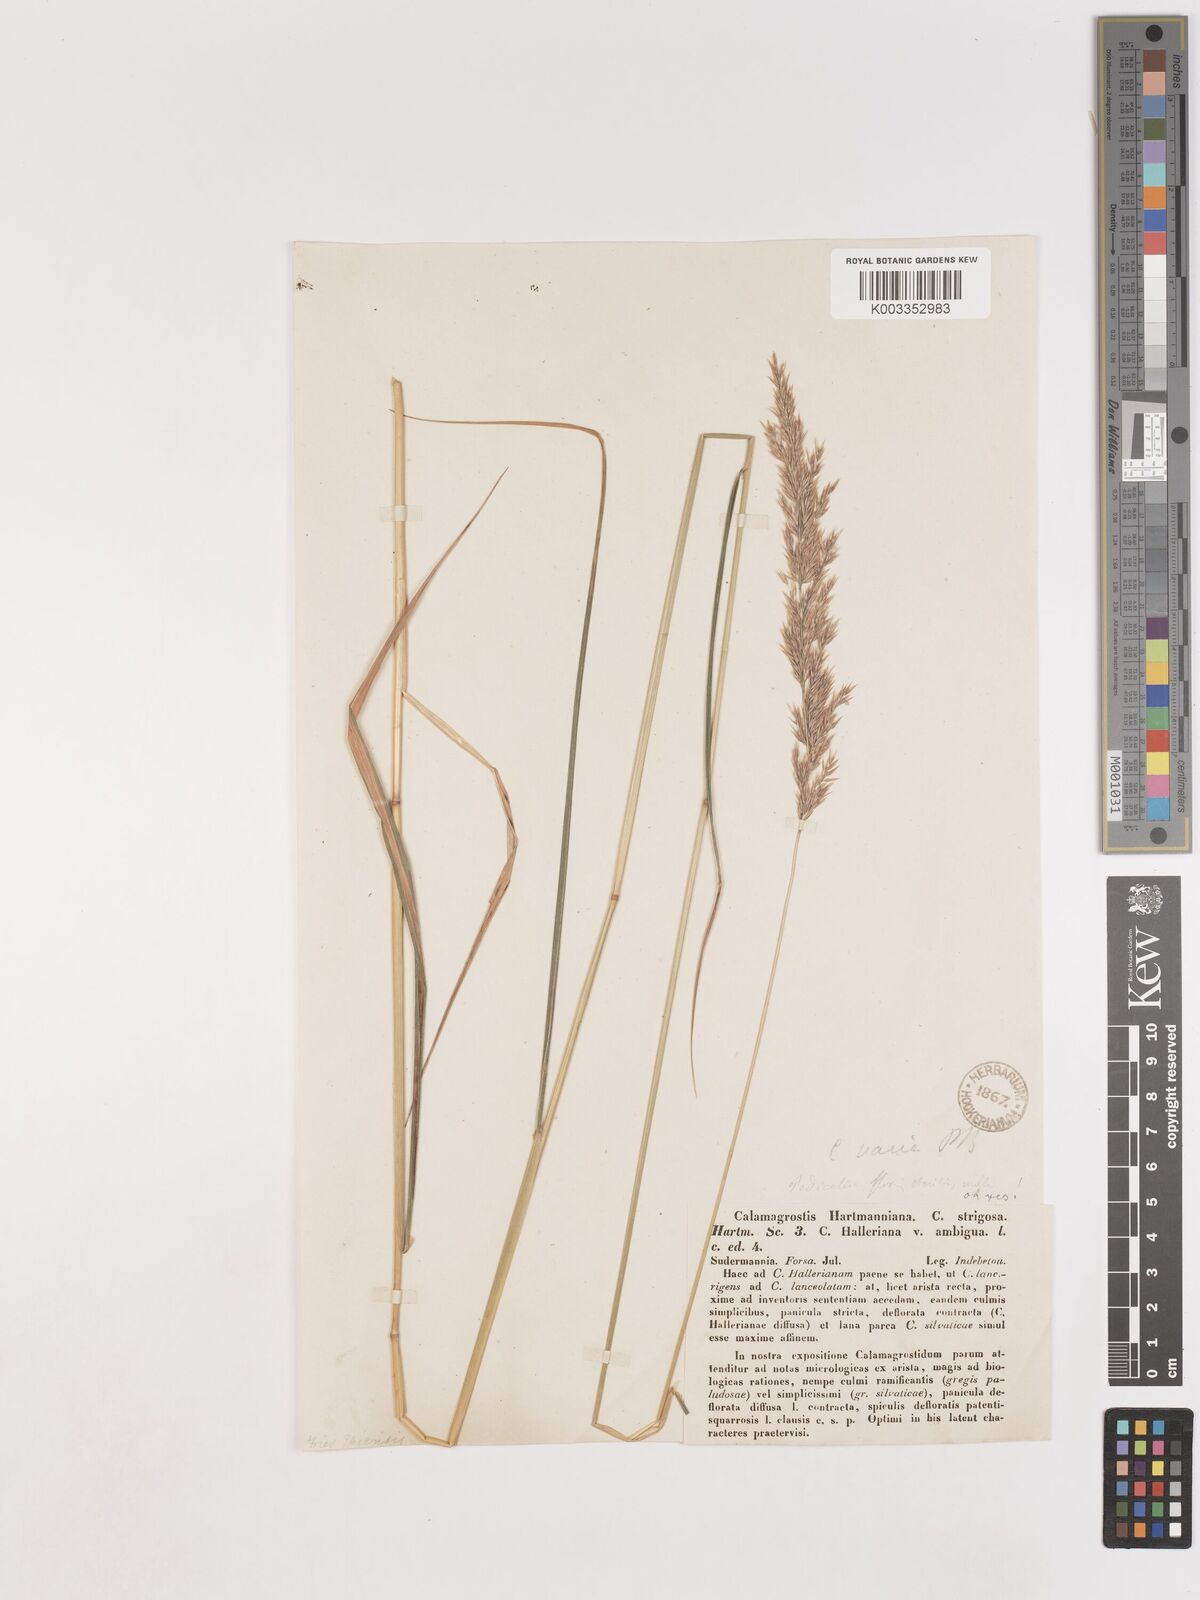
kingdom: Plantae
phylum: Tracheophyta
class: Liliopsida
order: Poales
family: Poaceae
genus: Calamagrostis
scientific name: Calamagrostis canescens
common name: Purple small-reed
